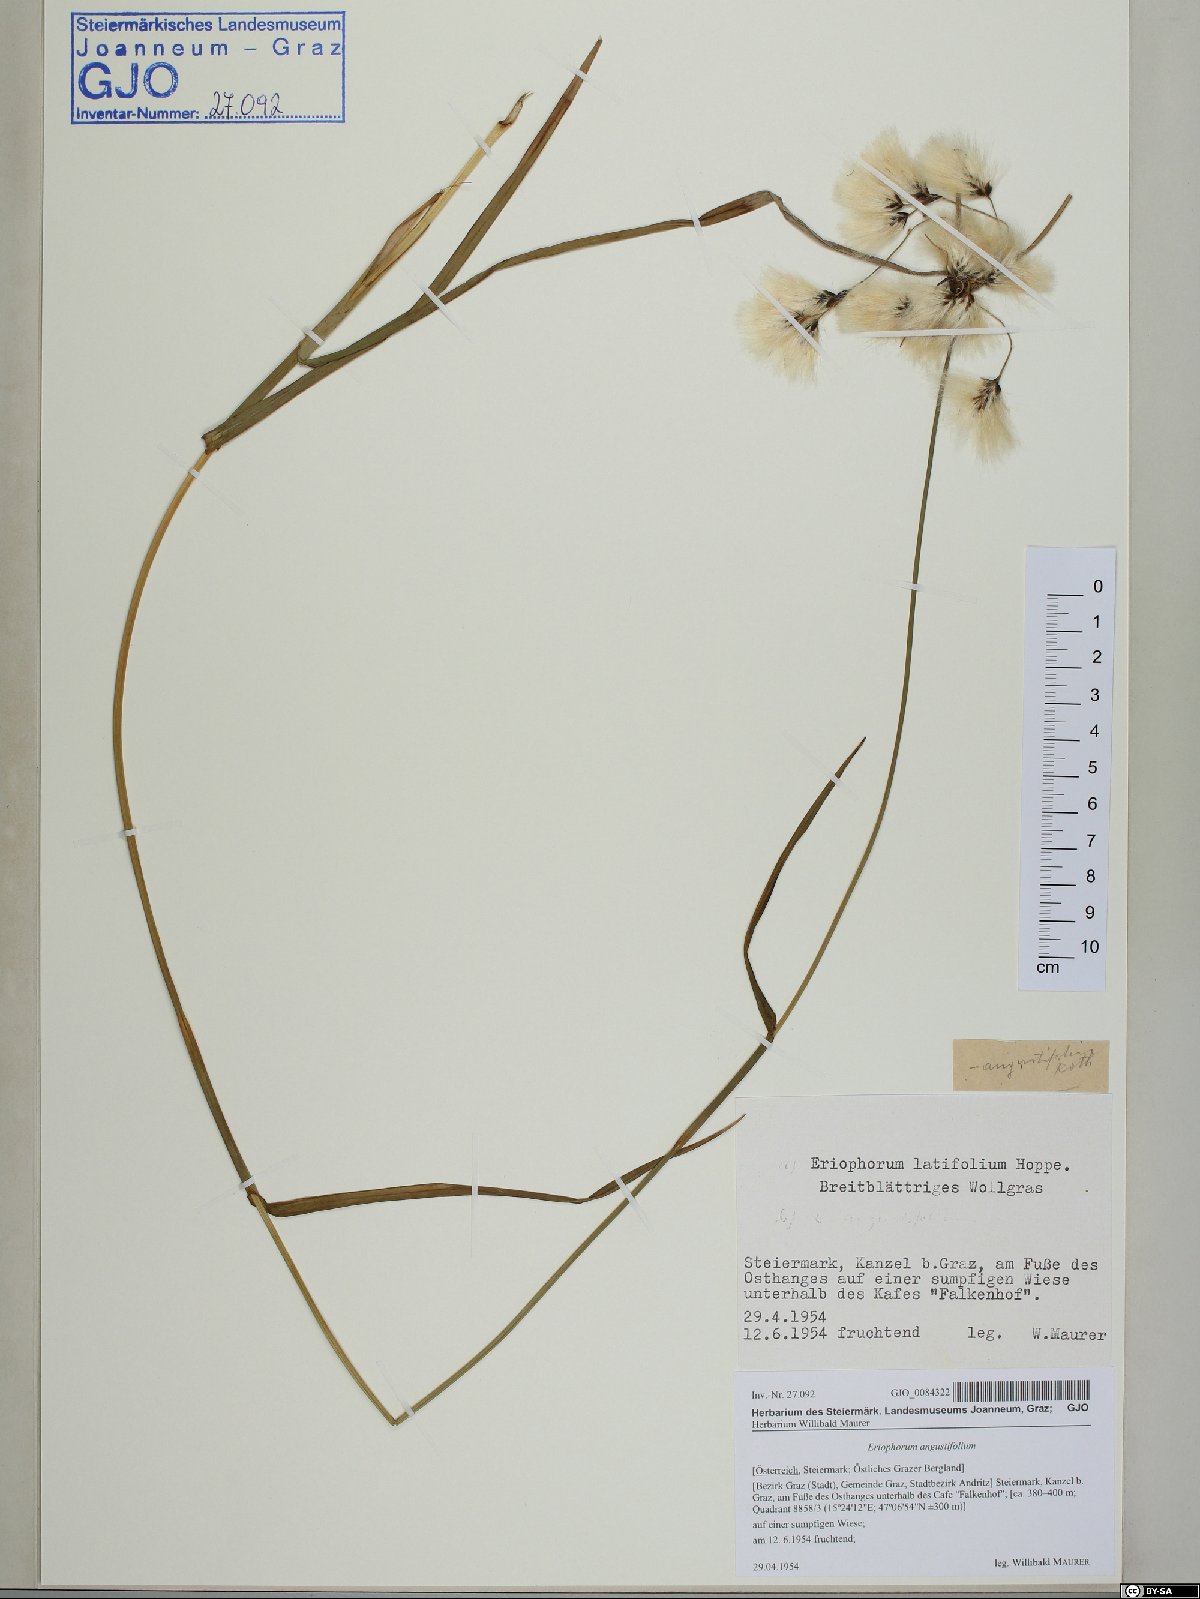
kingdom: Plantae
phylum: Tracheophyta
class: Liliopsida
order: Poales
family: Cyperaceae
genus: Eriophorum
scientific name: Eriophorum angustifolium
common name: Common cottongrass
